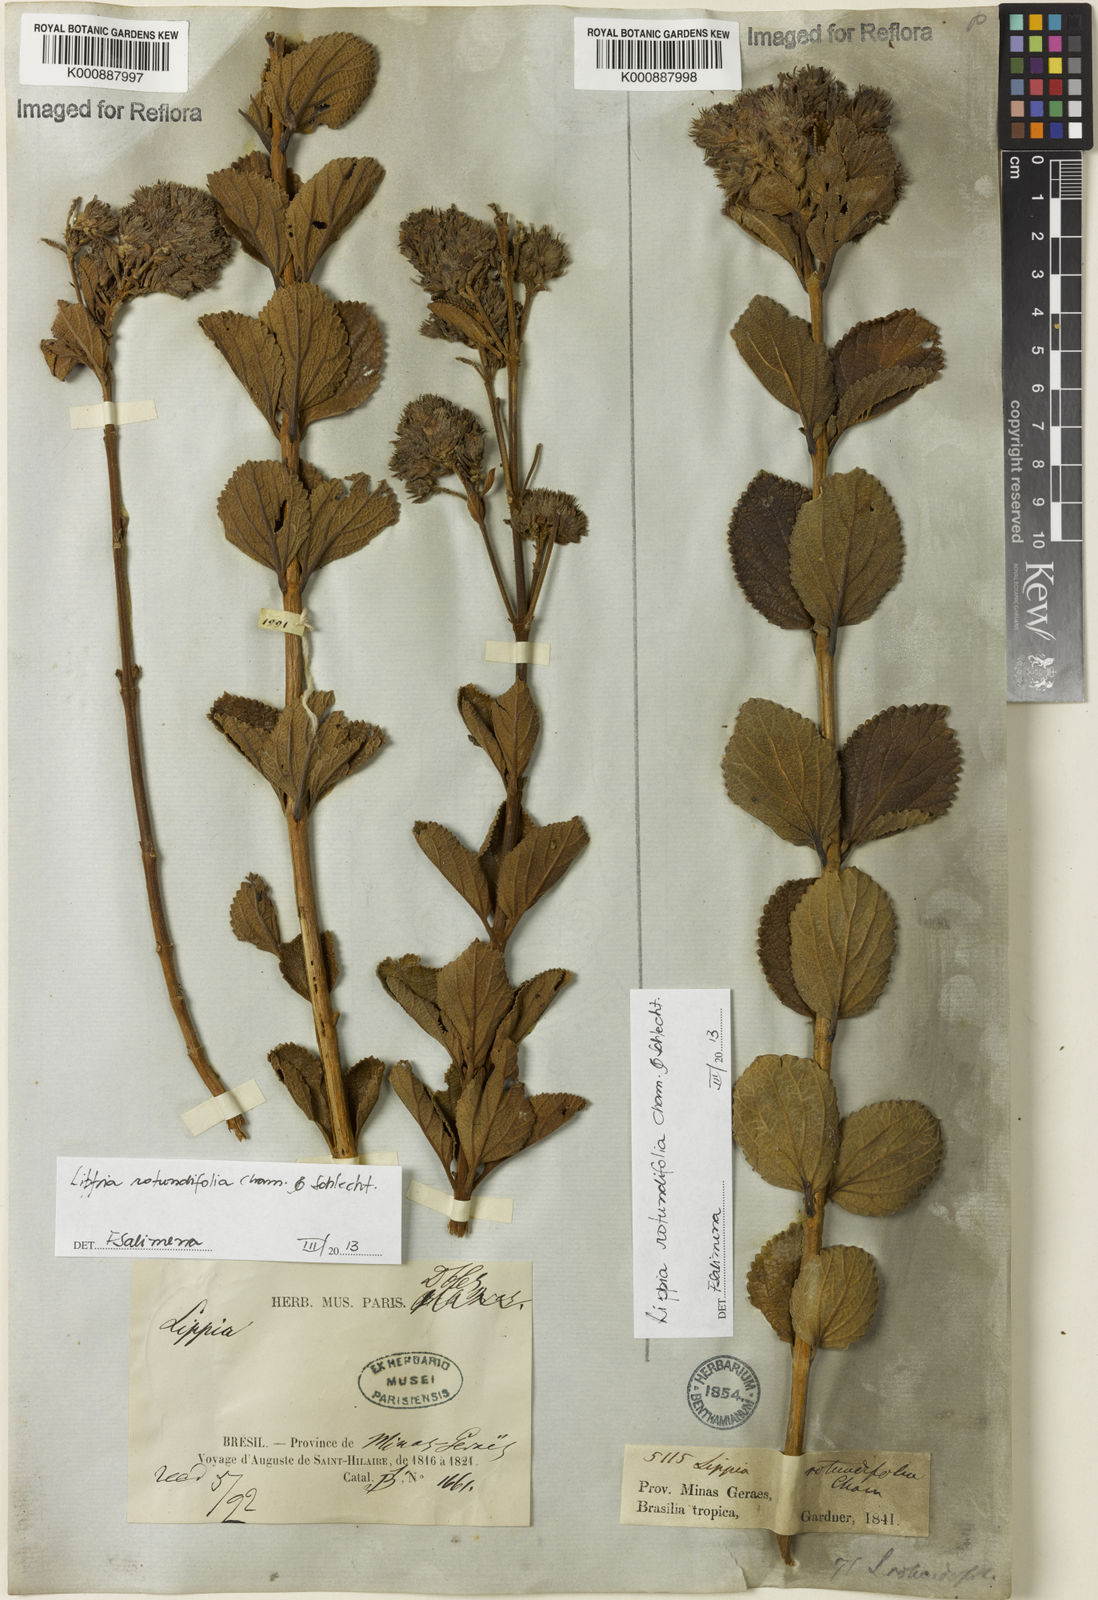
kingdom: Plantae
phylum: Tracheophyta
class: Magnoliopsida
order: Lamiales
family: Verbenaceae
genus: Lippia
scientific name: Lippia rotundifolia
